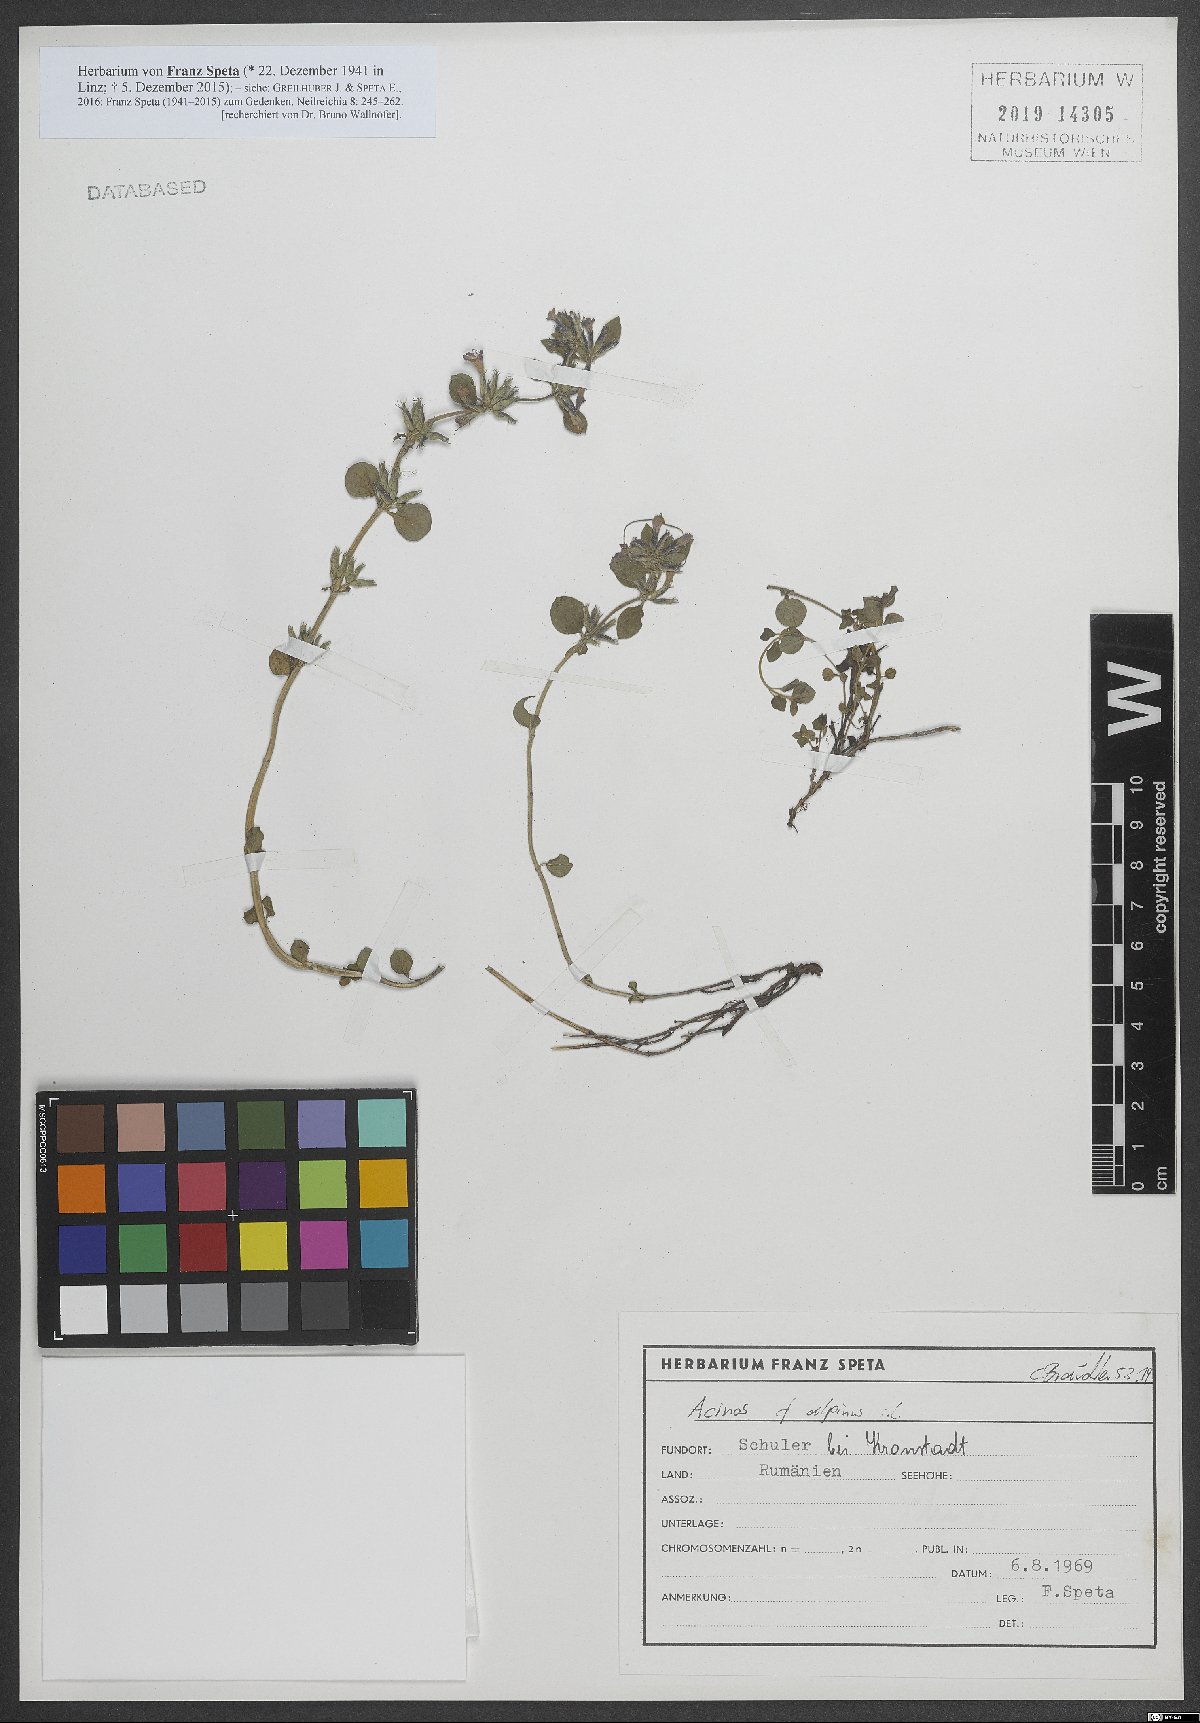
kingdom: Plantae
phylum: Tracheophyta
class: Magnoliopsida
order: Lamiales
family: Lamiaceae
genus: Clinopodium
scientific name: Clinopodium alpinum
